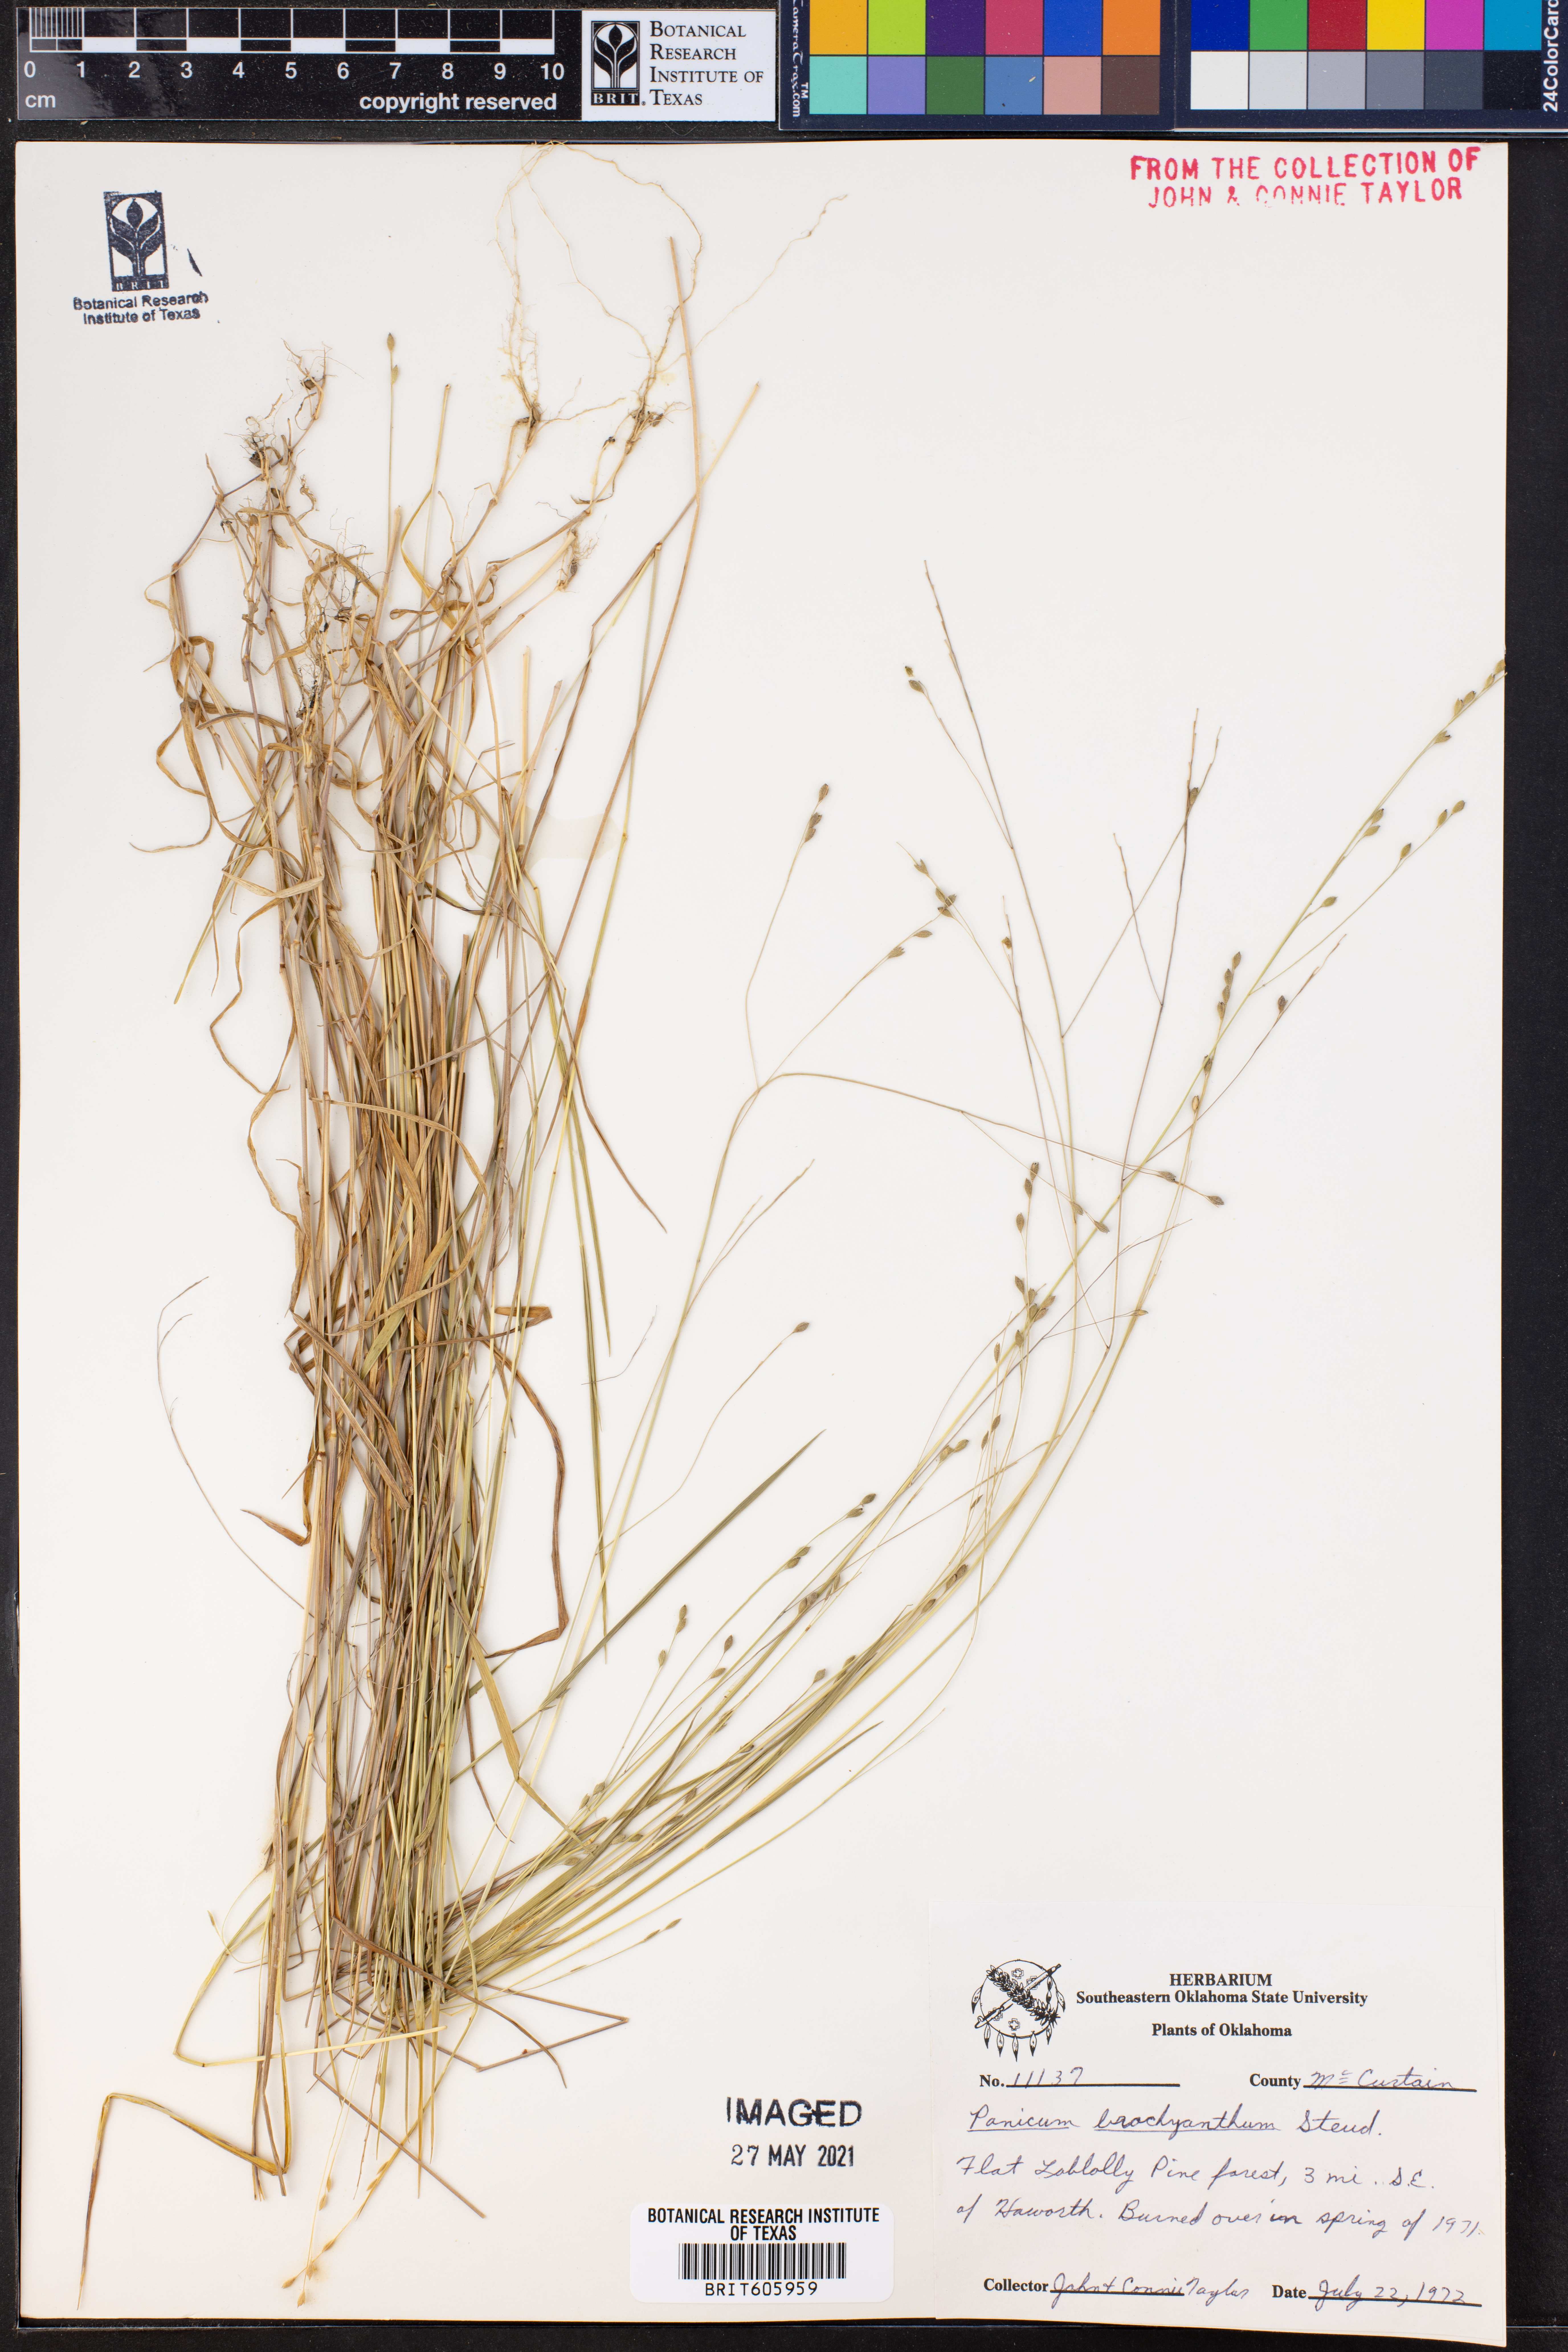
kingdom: Plantae
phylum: Tracheophyta
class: Liliopsida
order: Poales
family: Poaceae
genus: Kellochloa
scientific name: Kellochloa brachyantha
